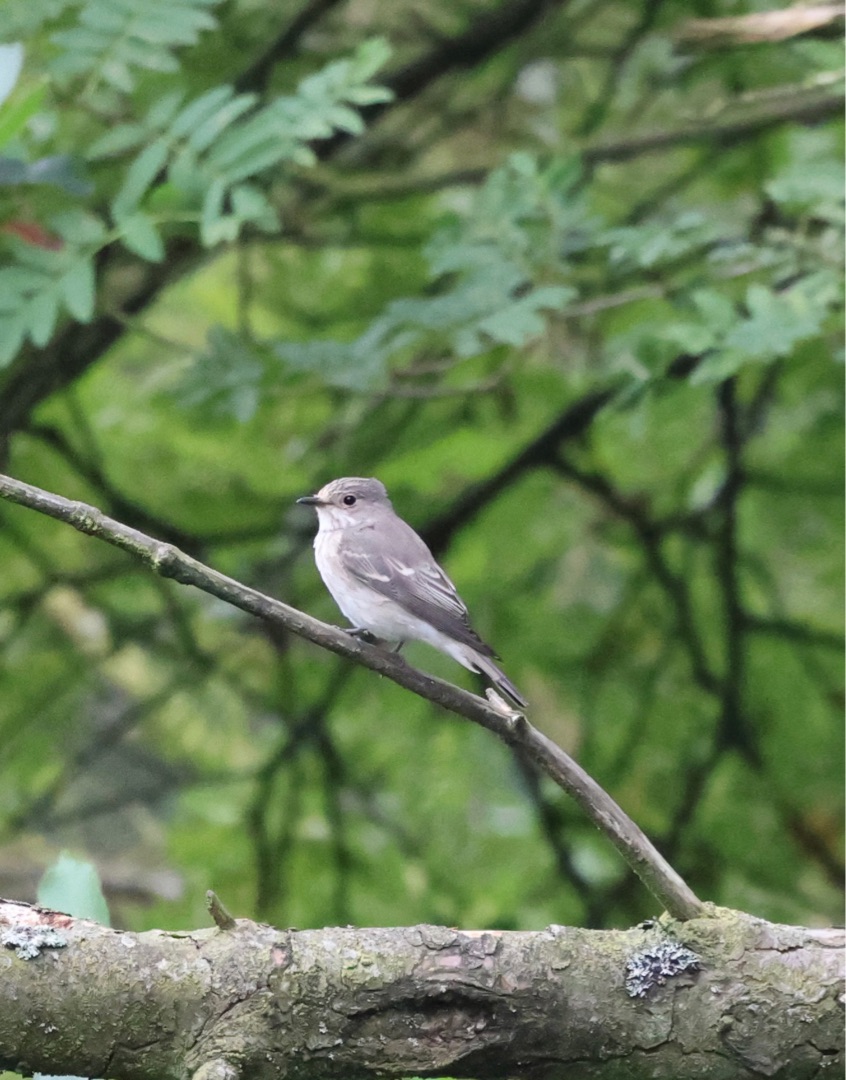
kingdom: Animalia
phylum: Chordata
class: Aves
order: Passeriformes
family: Muscicapidae
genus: Muscicapa
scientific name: Muscicapa striata
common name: Grå fluesnapper
